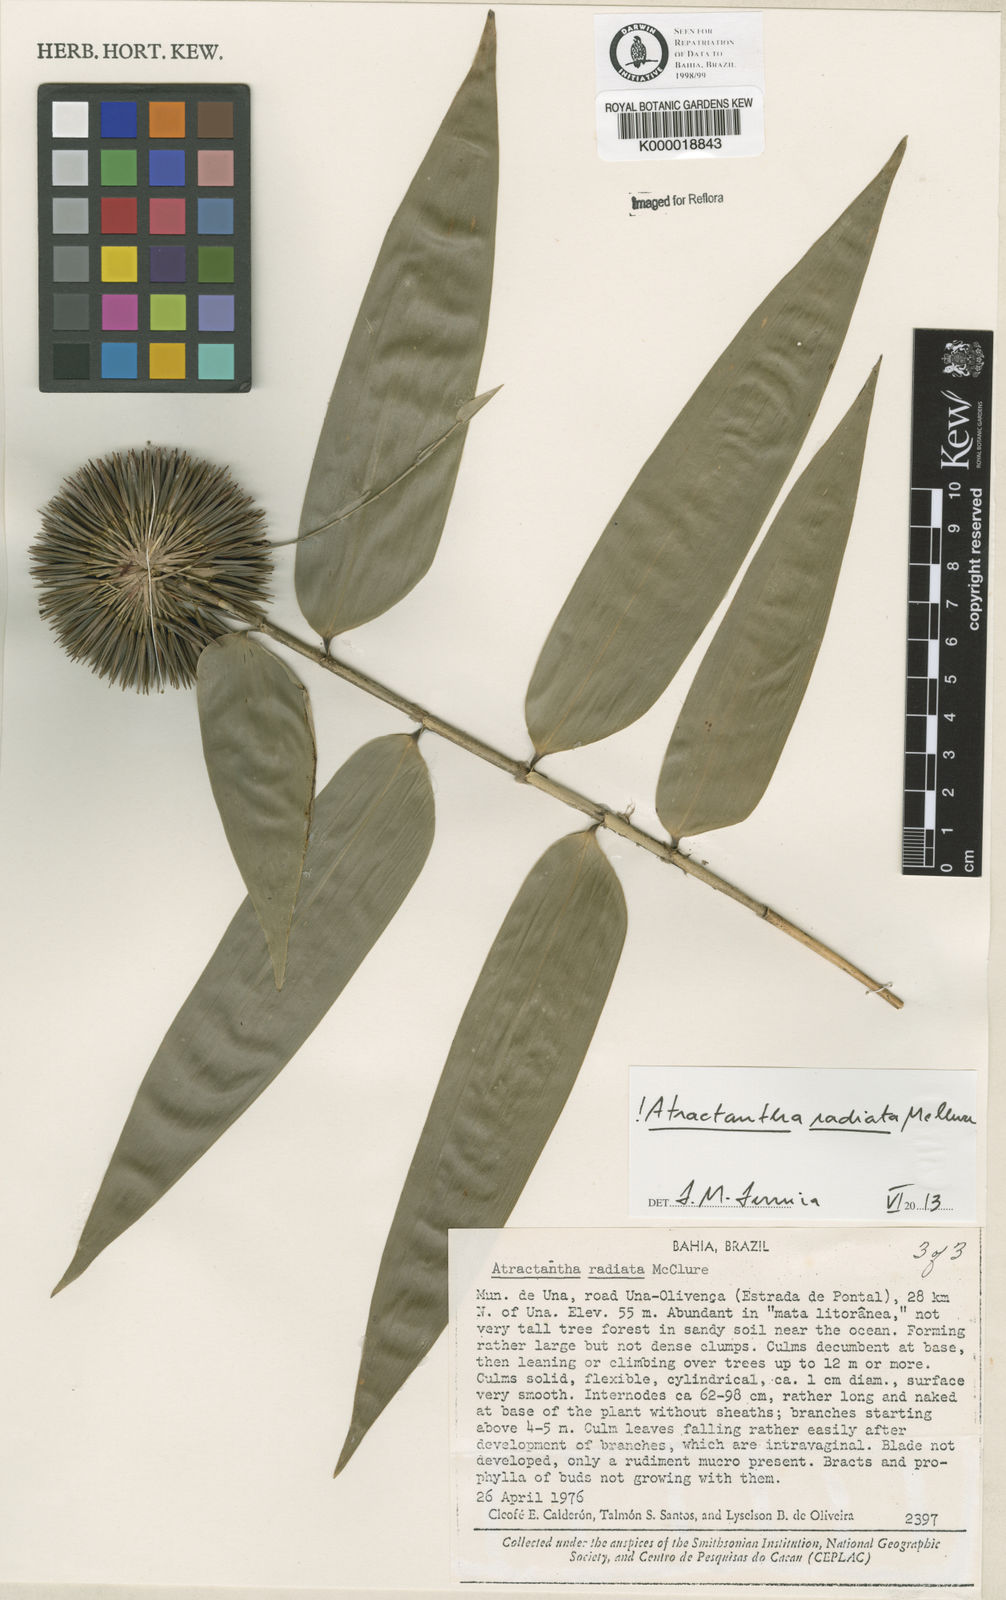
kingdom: Plantae
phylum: Tracheophyta
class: Liliopsida
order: Poales
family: Poaceae
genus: Atractantha
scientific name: Atractantha radiata
